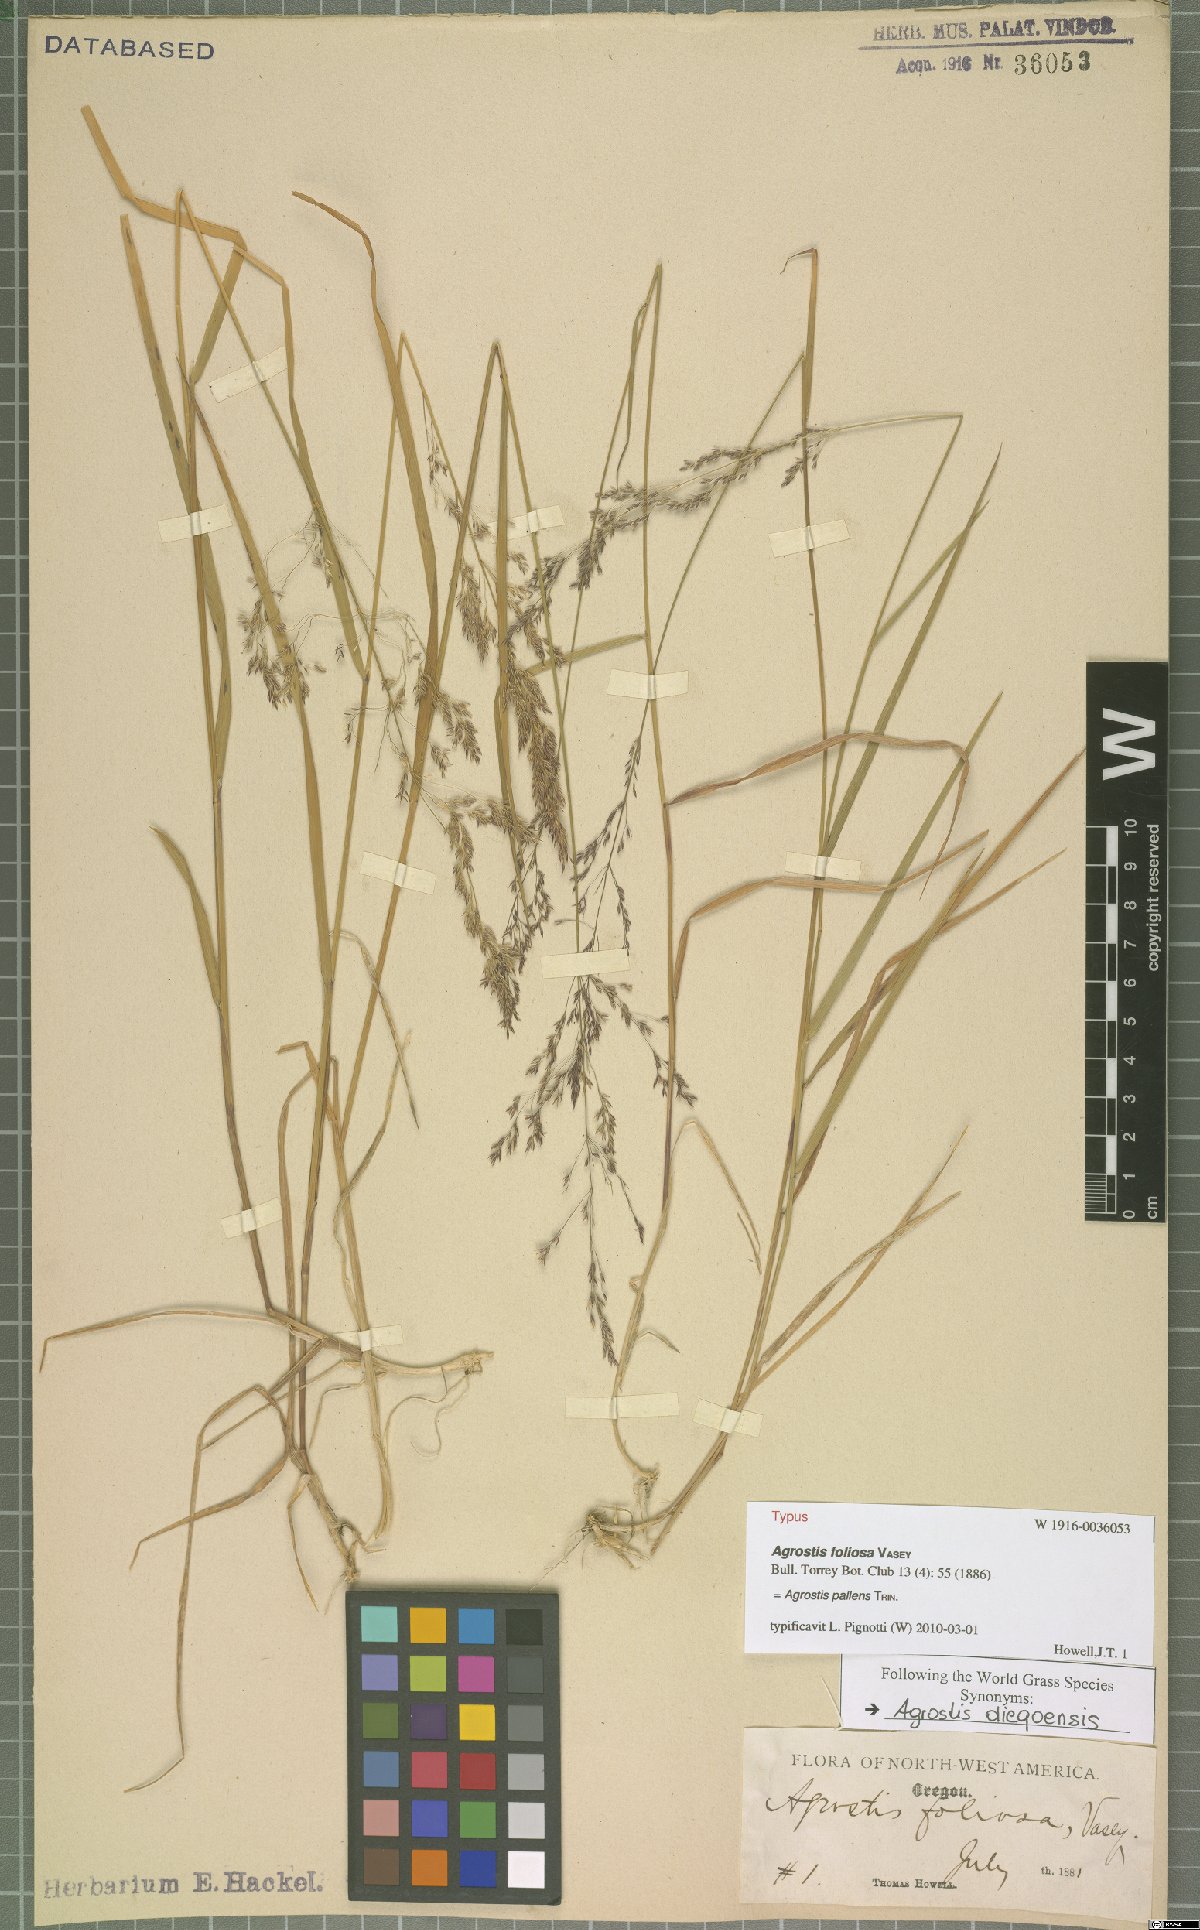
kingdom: Plantae
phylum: Tracheophyta
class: Liliopsida
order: Poales
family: Poaceae
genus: Agrostis
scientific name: Agrostis pallens
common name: Dune bent
